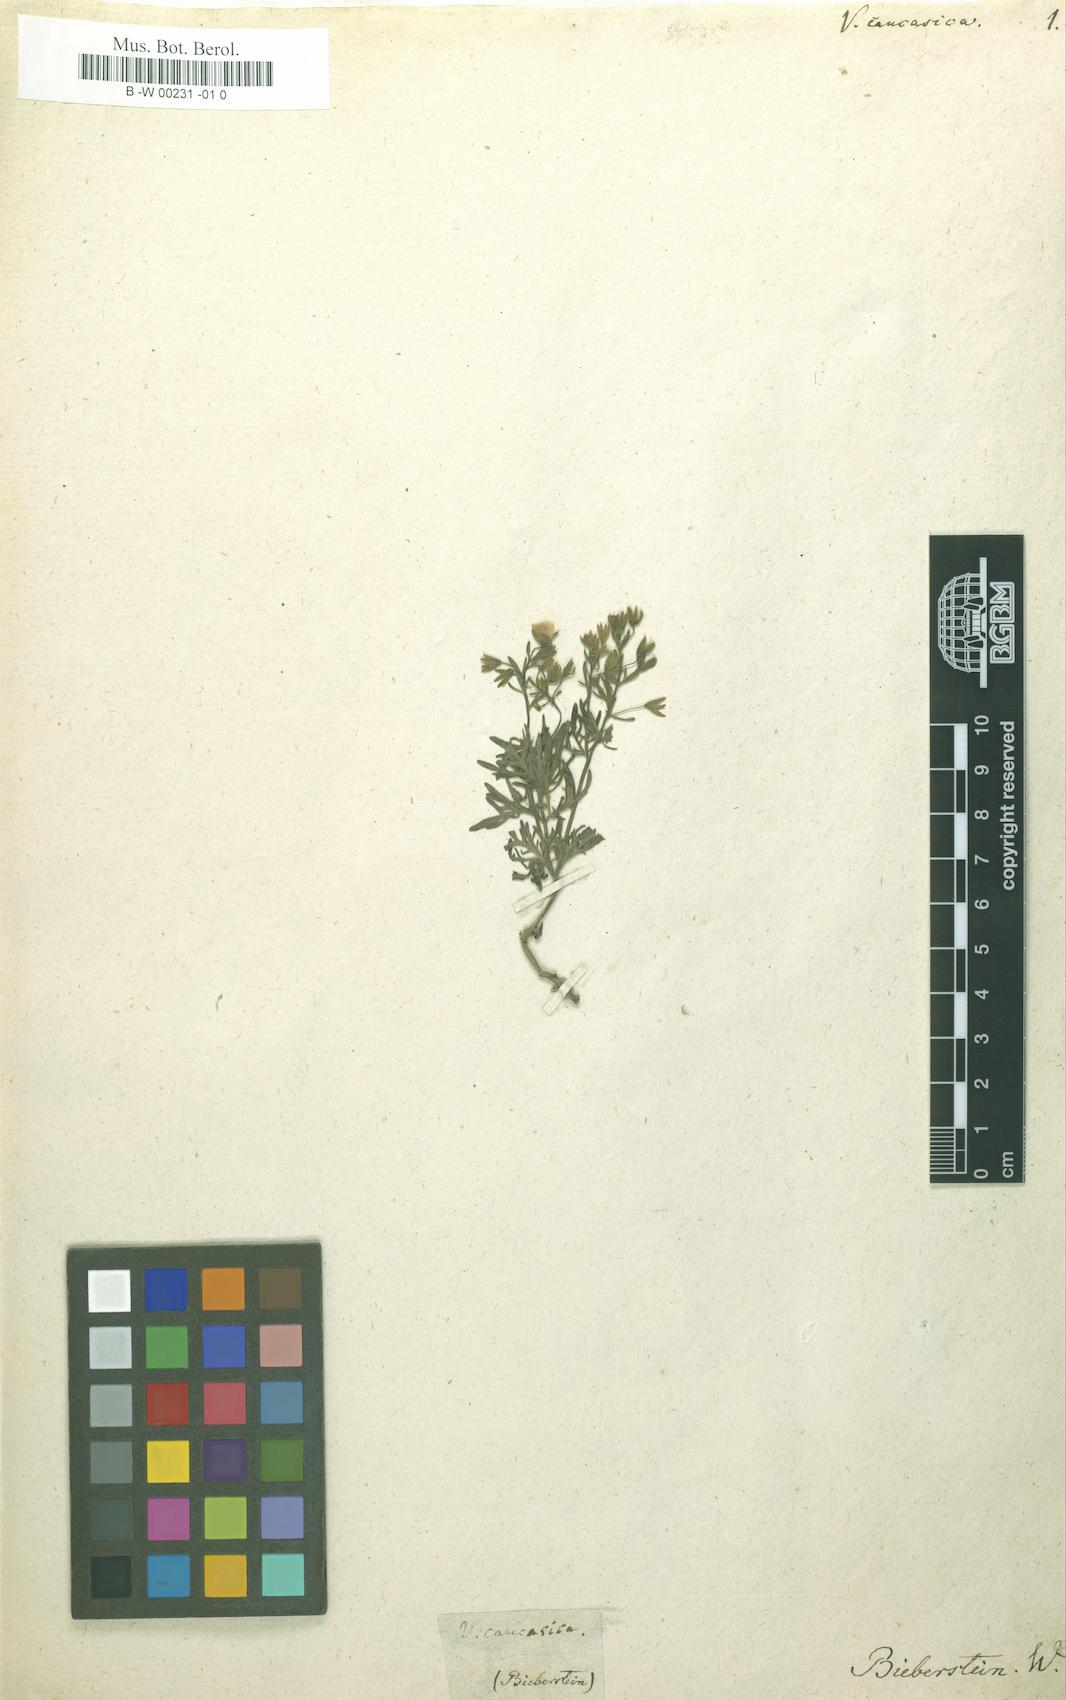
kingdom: Plantae
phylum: Tracheophyta
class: Magnoliopsida
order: Lamiales
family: Plantaginaceae
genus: Veronica
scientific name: Veronica caucasica
